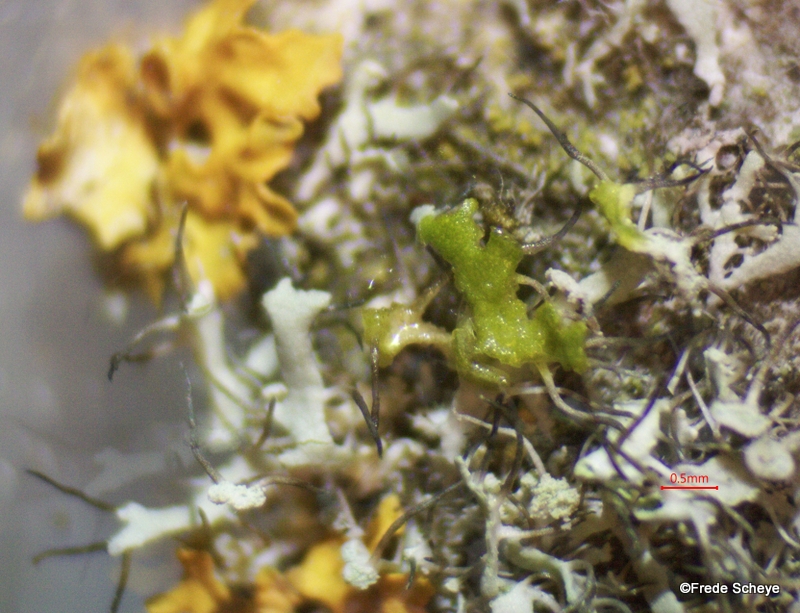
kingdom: Fungi
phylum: Ascomycota
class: Lecanoromycetes
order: Caliciales
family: Physciaceae
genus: Physcia
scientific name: Physcia tenella
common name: spæd rosetlav
